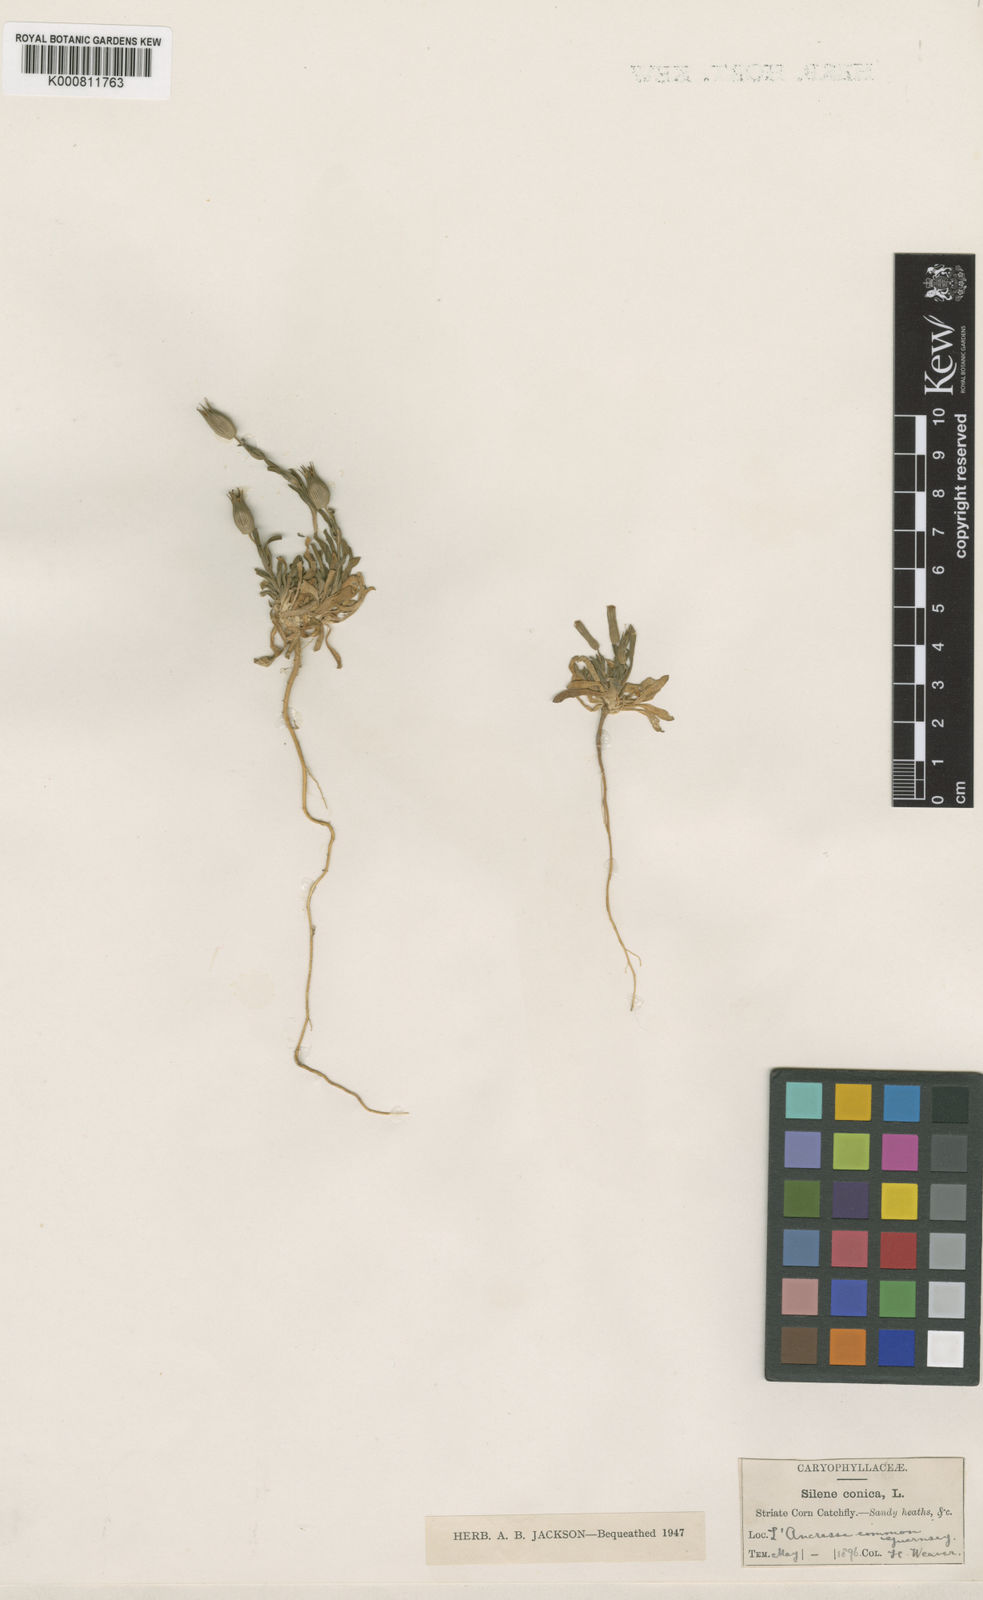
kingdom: Plantae
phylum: Tracheophyta
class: Magnoliopsida
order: Caryophyllales
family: Caryophyllaceae
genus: Silene
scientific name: Silene conica
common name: Sand catchfly
